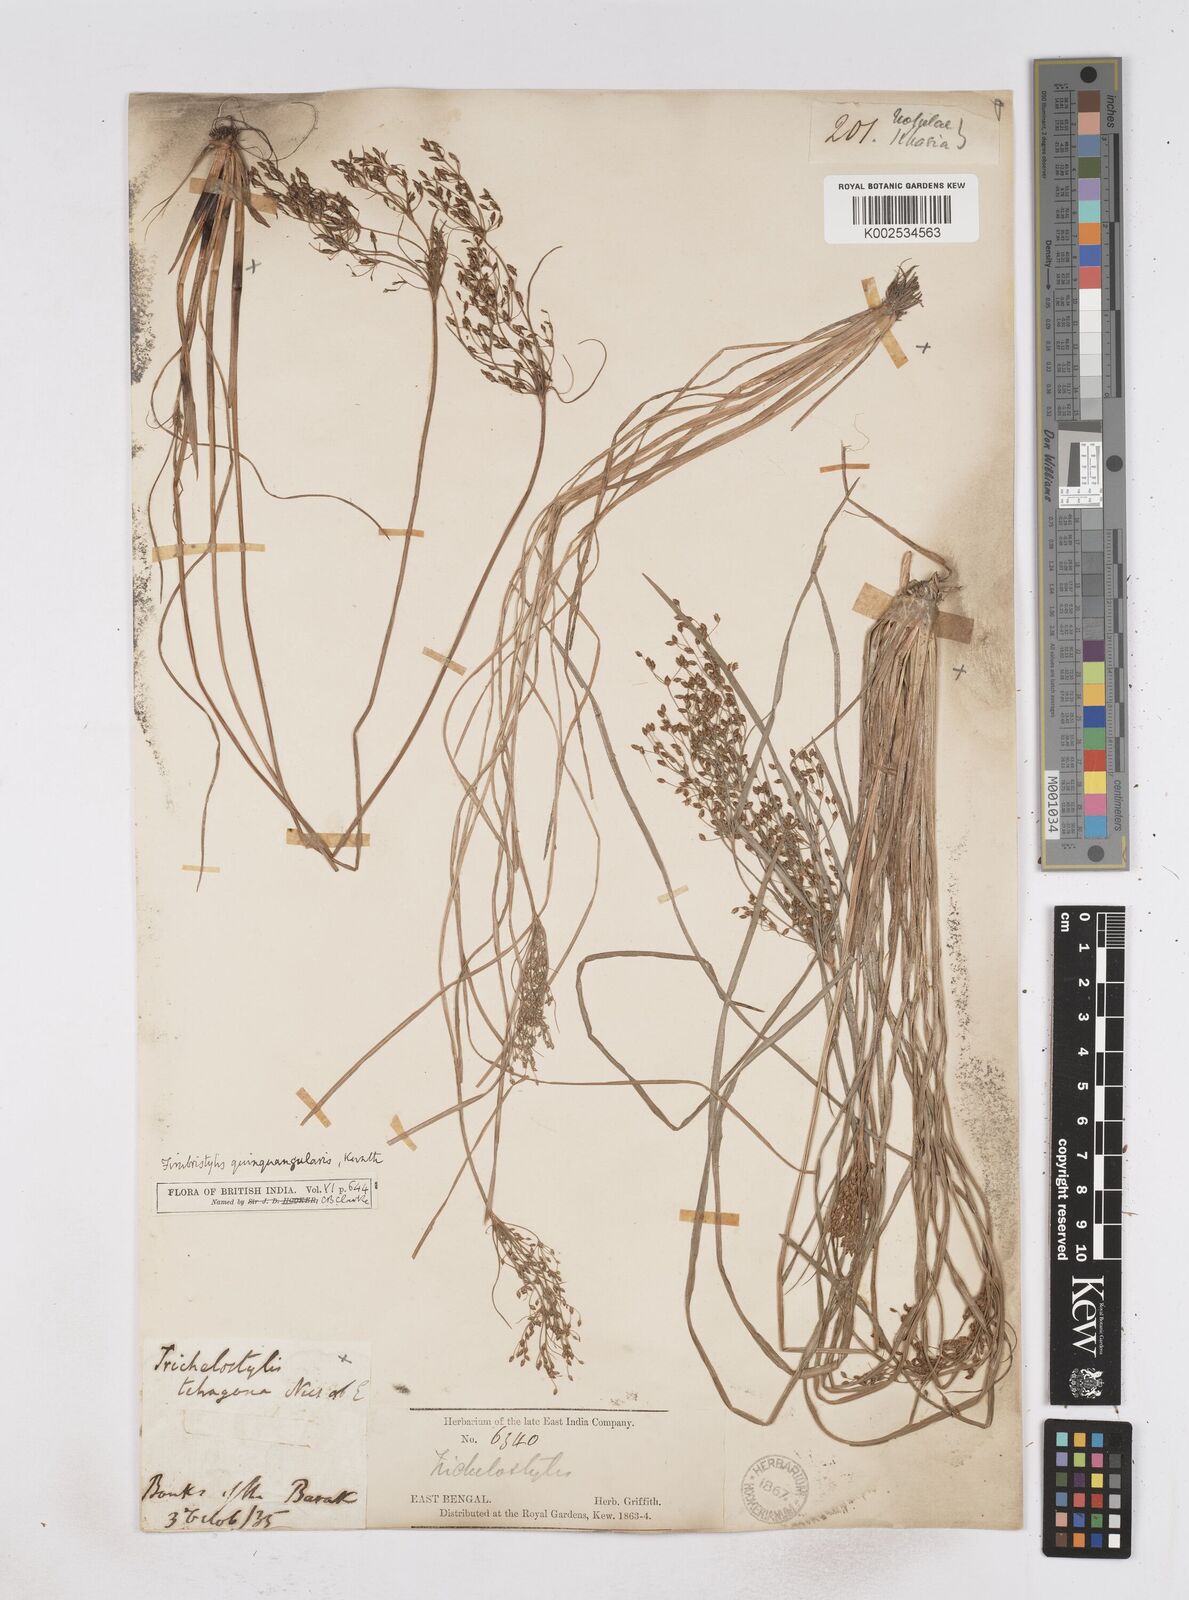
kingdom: Plantae
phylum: Tracheophyta
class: Liliopsida
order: Poales
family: Cyperaceae
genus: Fimbristylis
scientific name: Fimbristylis quinquangularis
